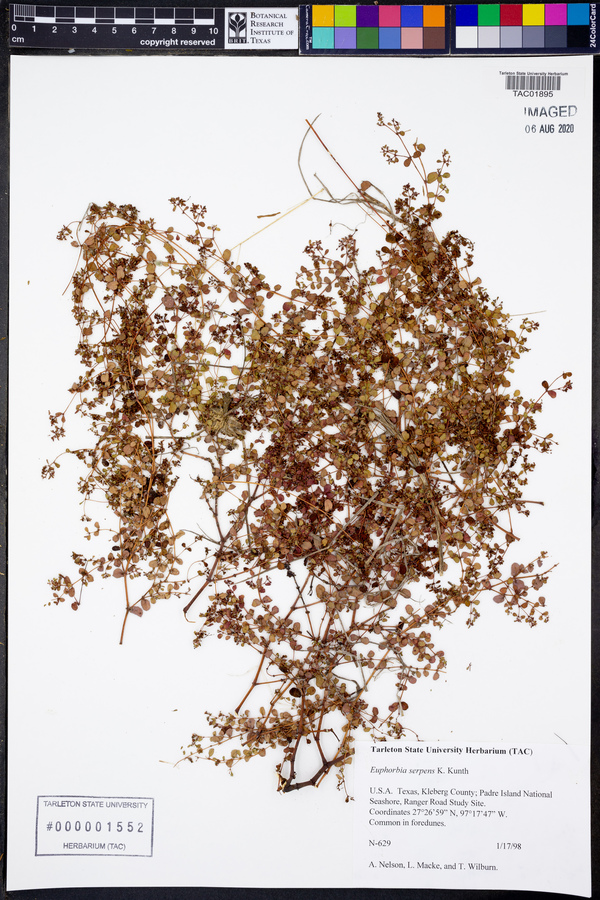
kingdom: Plantae
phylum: Tracheophyta
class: Magnoliopsida
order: Malpighiales
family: Euphorbiaceae
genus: Euphorbia
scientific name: Euphorbia serpens
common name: Matted sandmat
